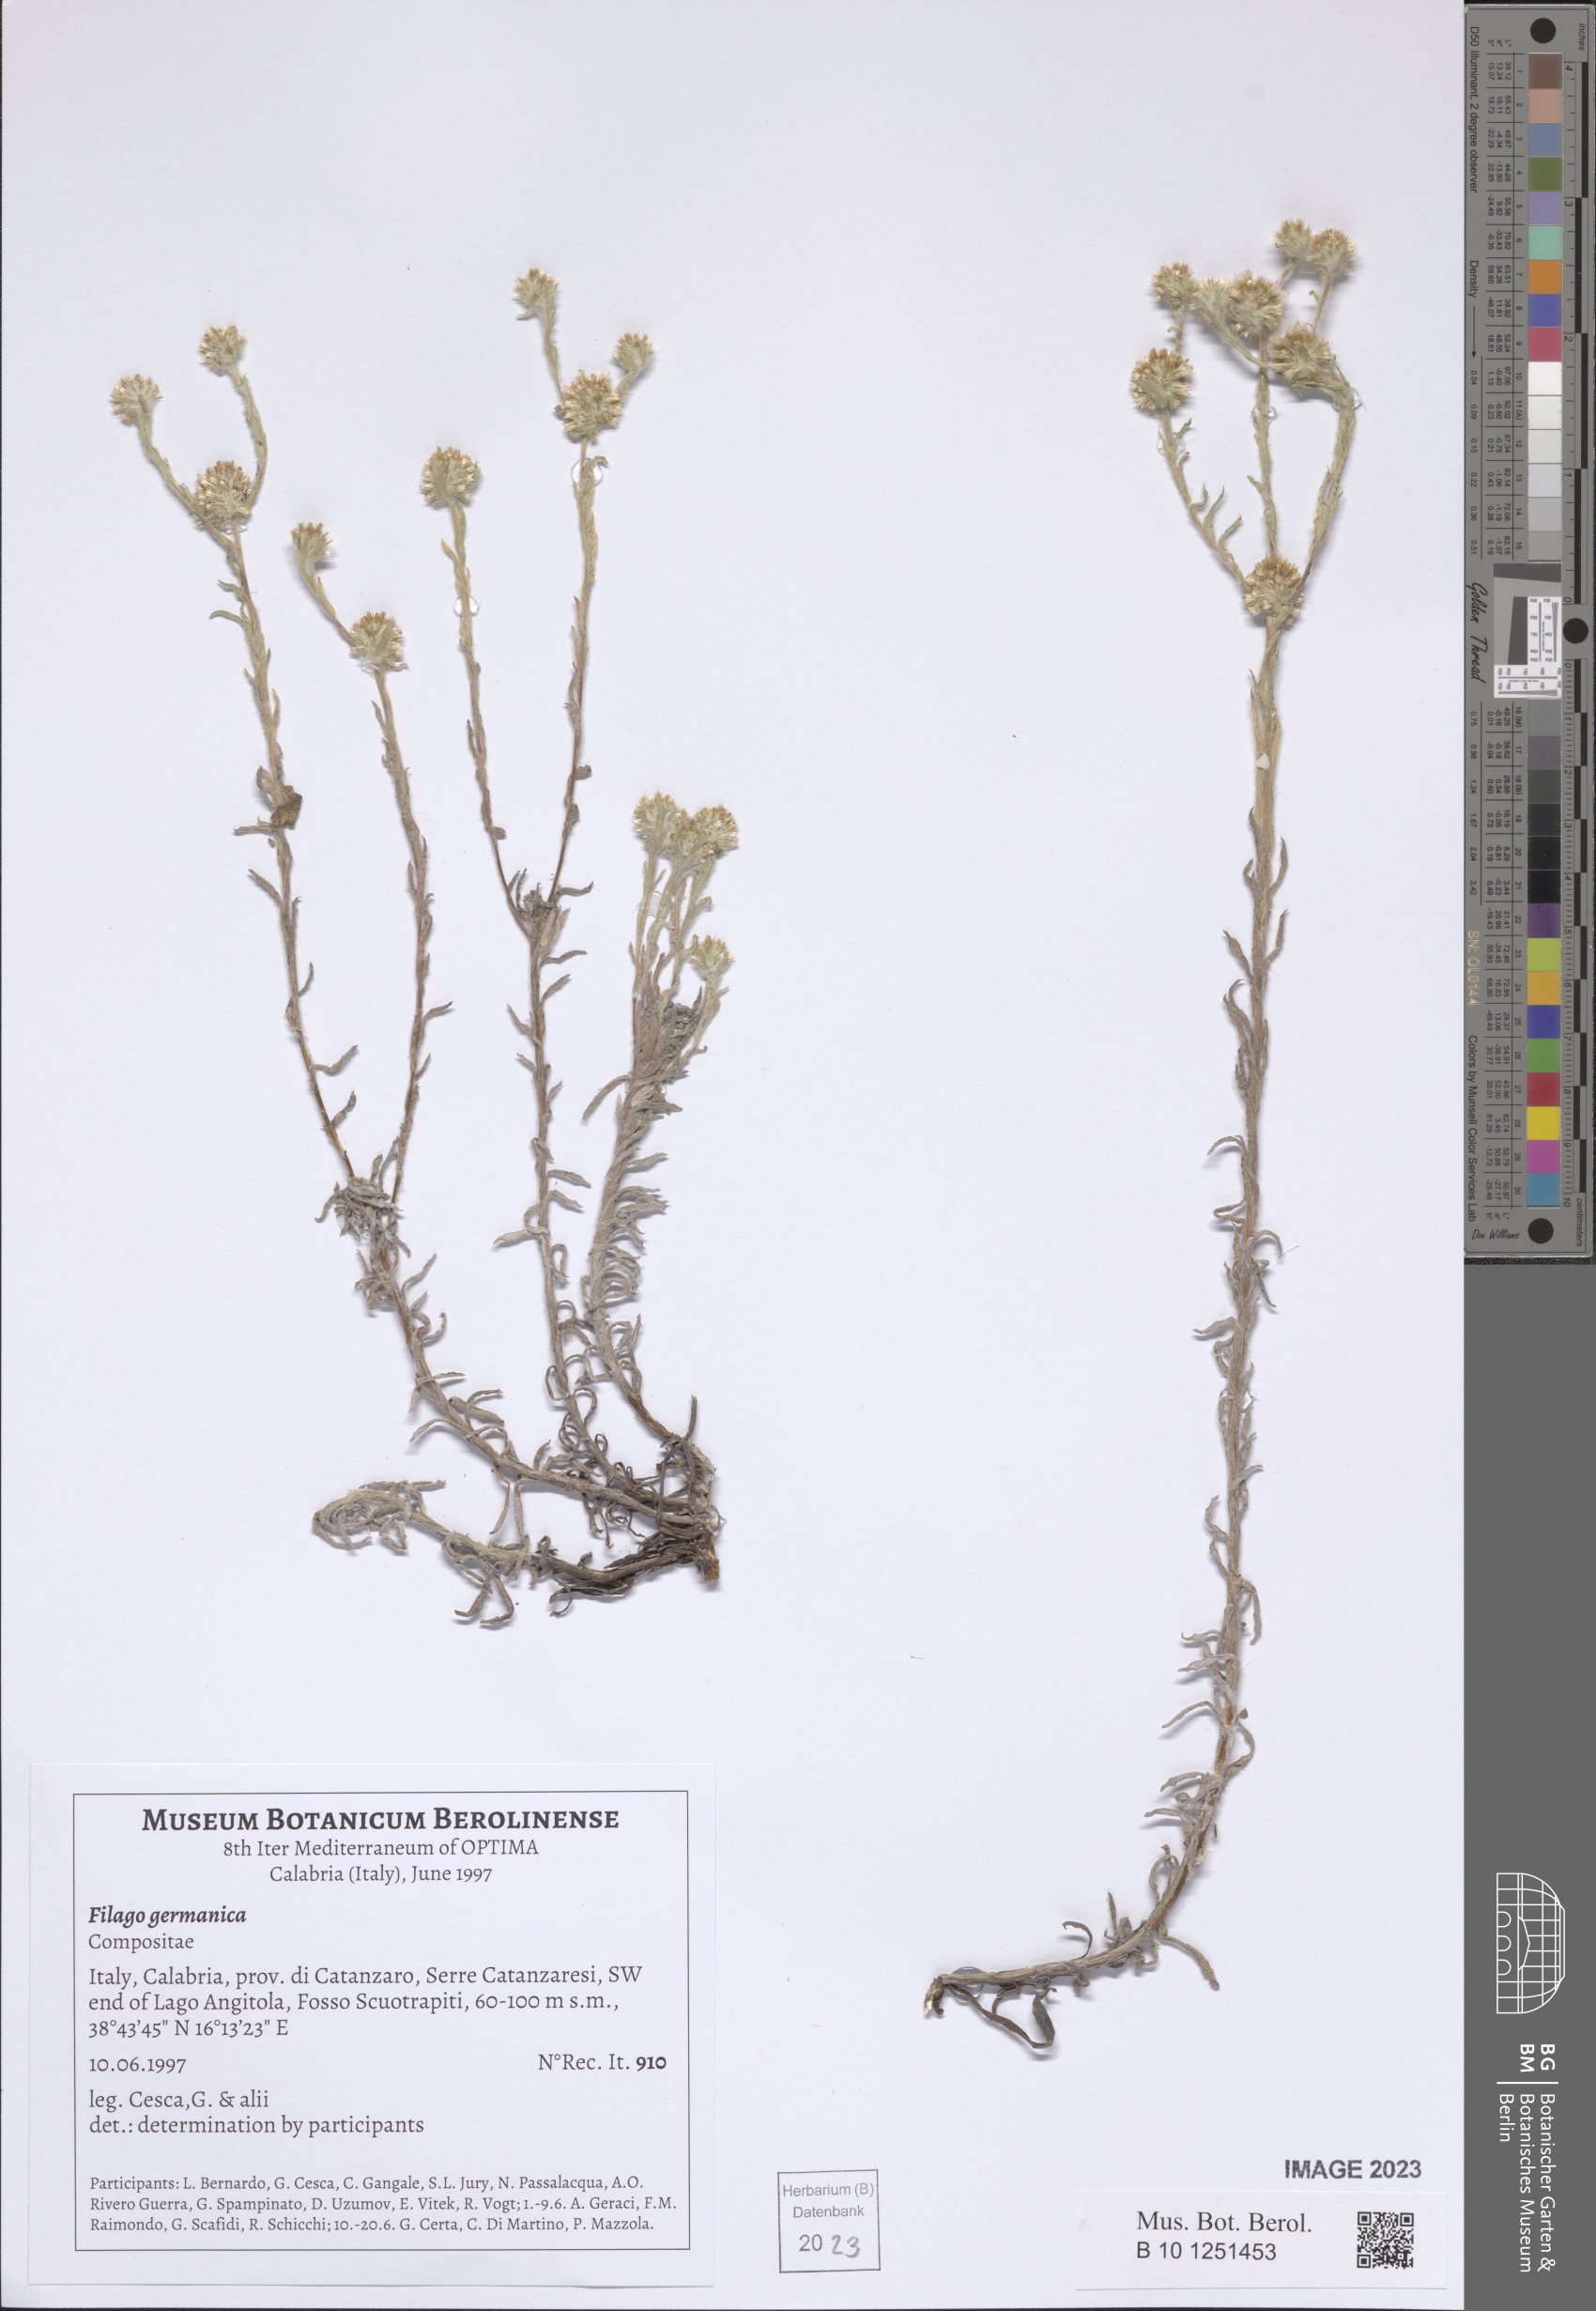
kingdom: Plantae
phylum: Tracheophyta
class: Magnoliopsida
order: Asterales
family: Asteraceae
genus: Filago
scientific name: Filago germanica
